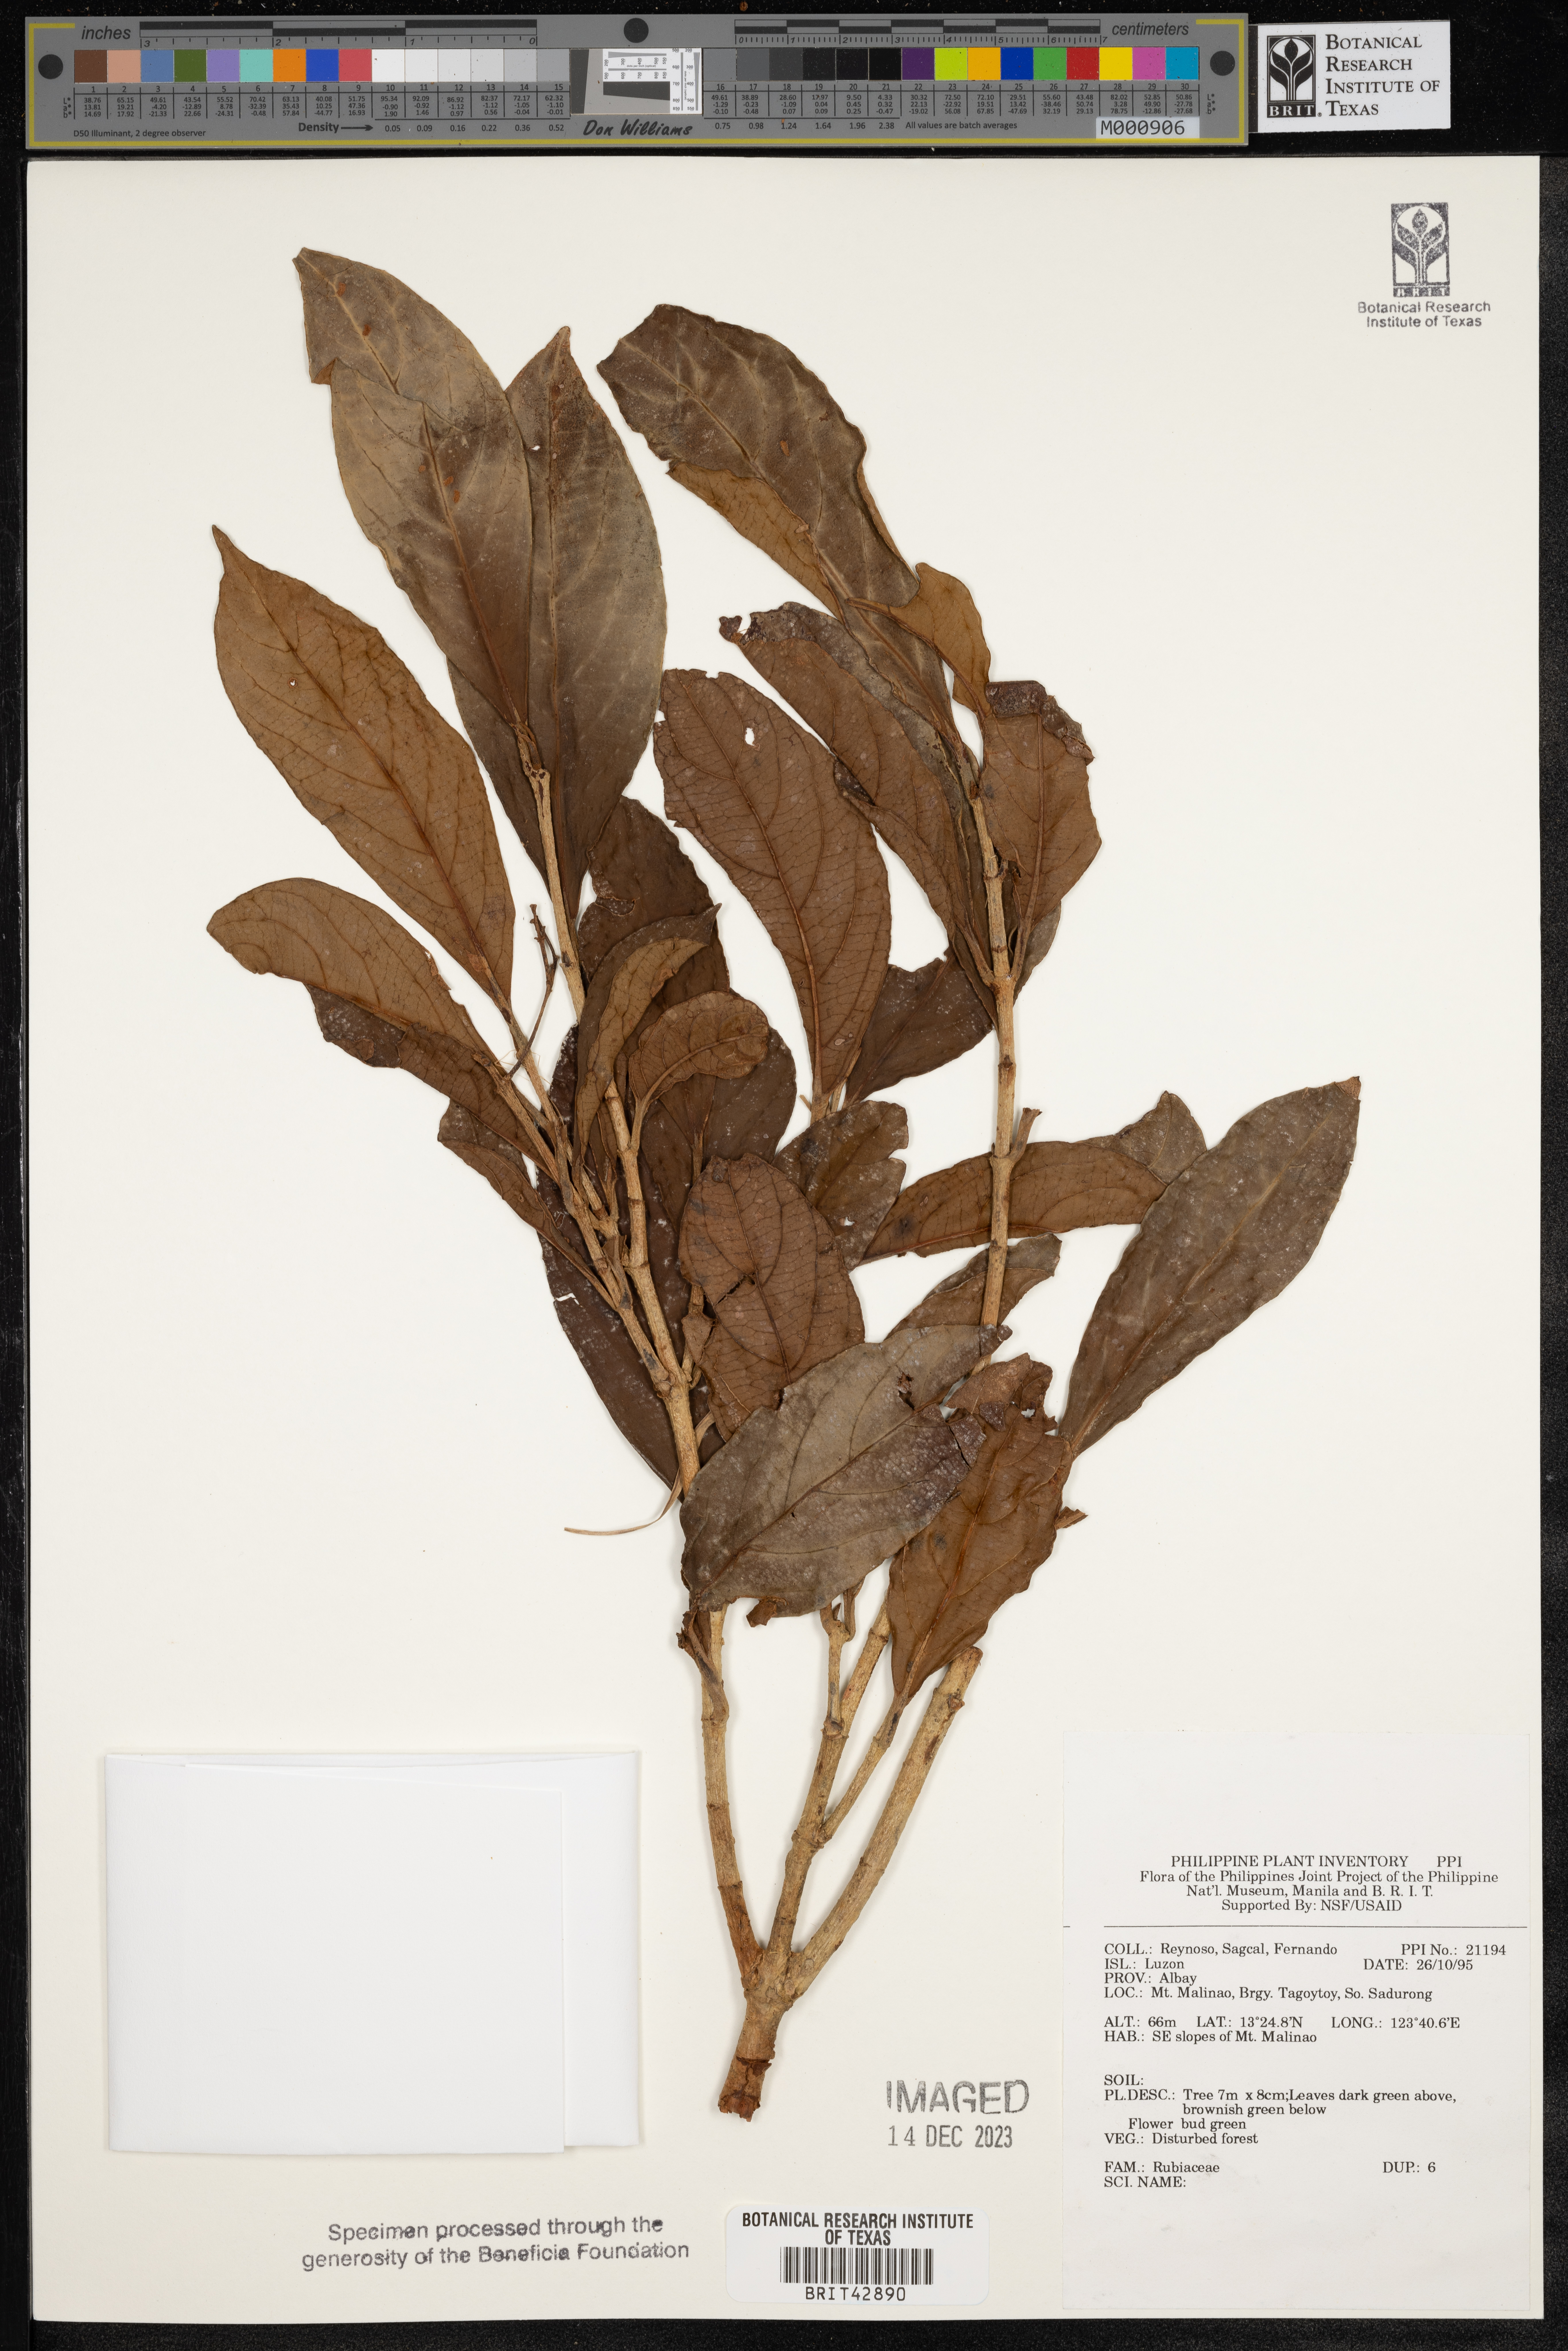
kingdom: Plantae
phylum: Tracheophyta
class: Magnoliopsida
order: Gentianales
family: Rubiaceae
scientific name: Rubiaceae
